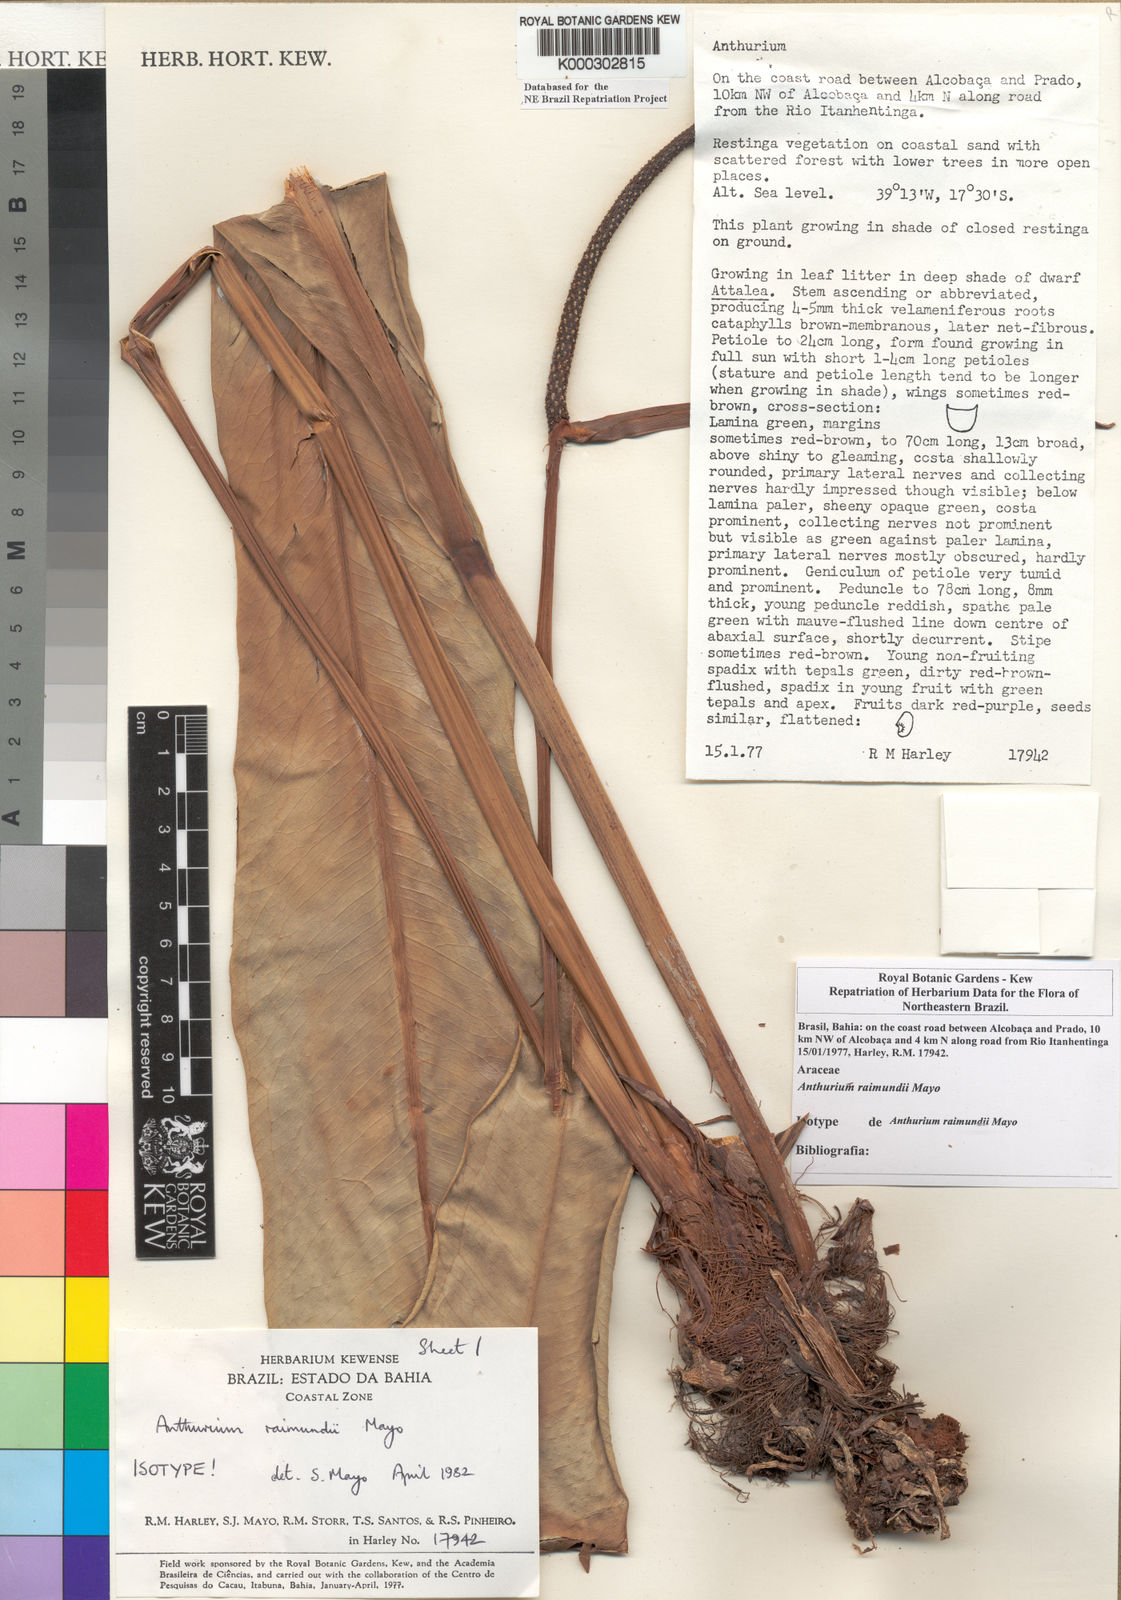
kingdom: Plantae
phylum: Tracheophyta
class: Liliopsida
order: Alismatales
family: Araceae
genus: Anthurium
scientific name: Anthurium raimundii
